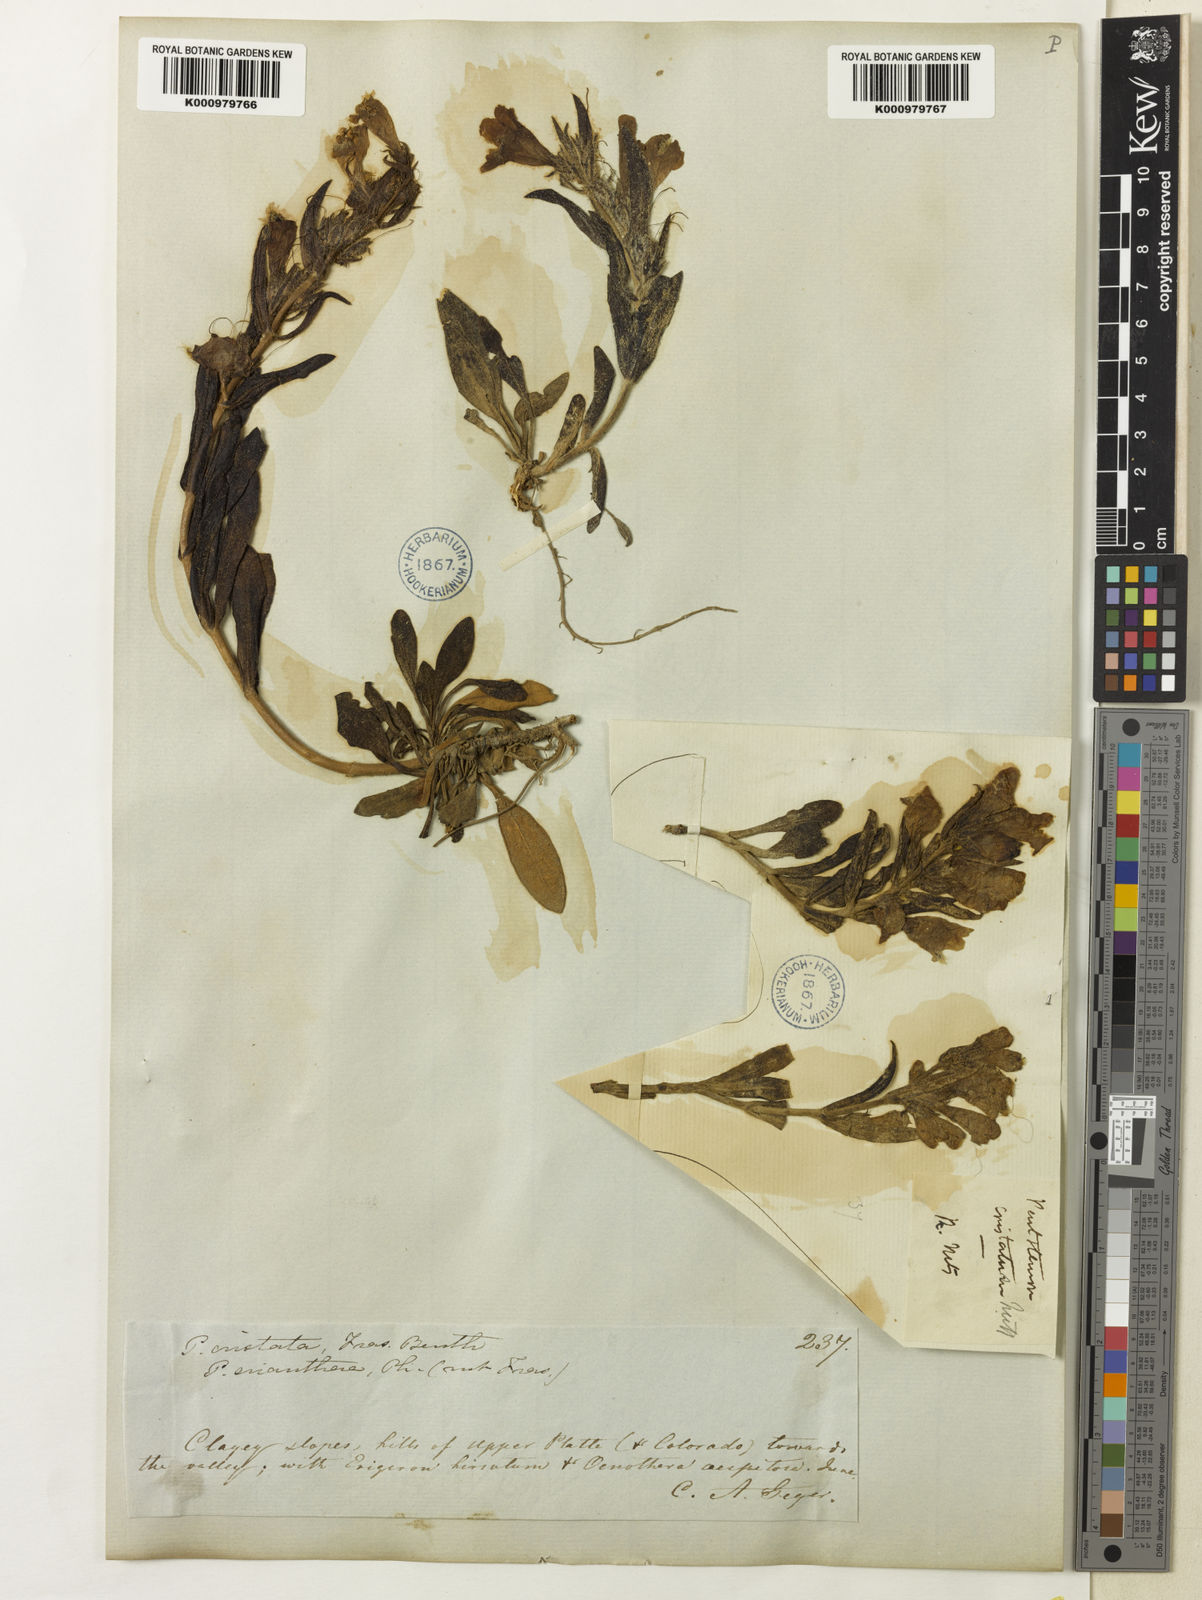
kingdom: Plantae
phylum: Tracheophyta
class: Magnoliopsida
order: Lamiales
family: Plantaginaceae
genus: Penstemon
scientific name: Penstemon eriantherus
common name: Crested beardtongue
